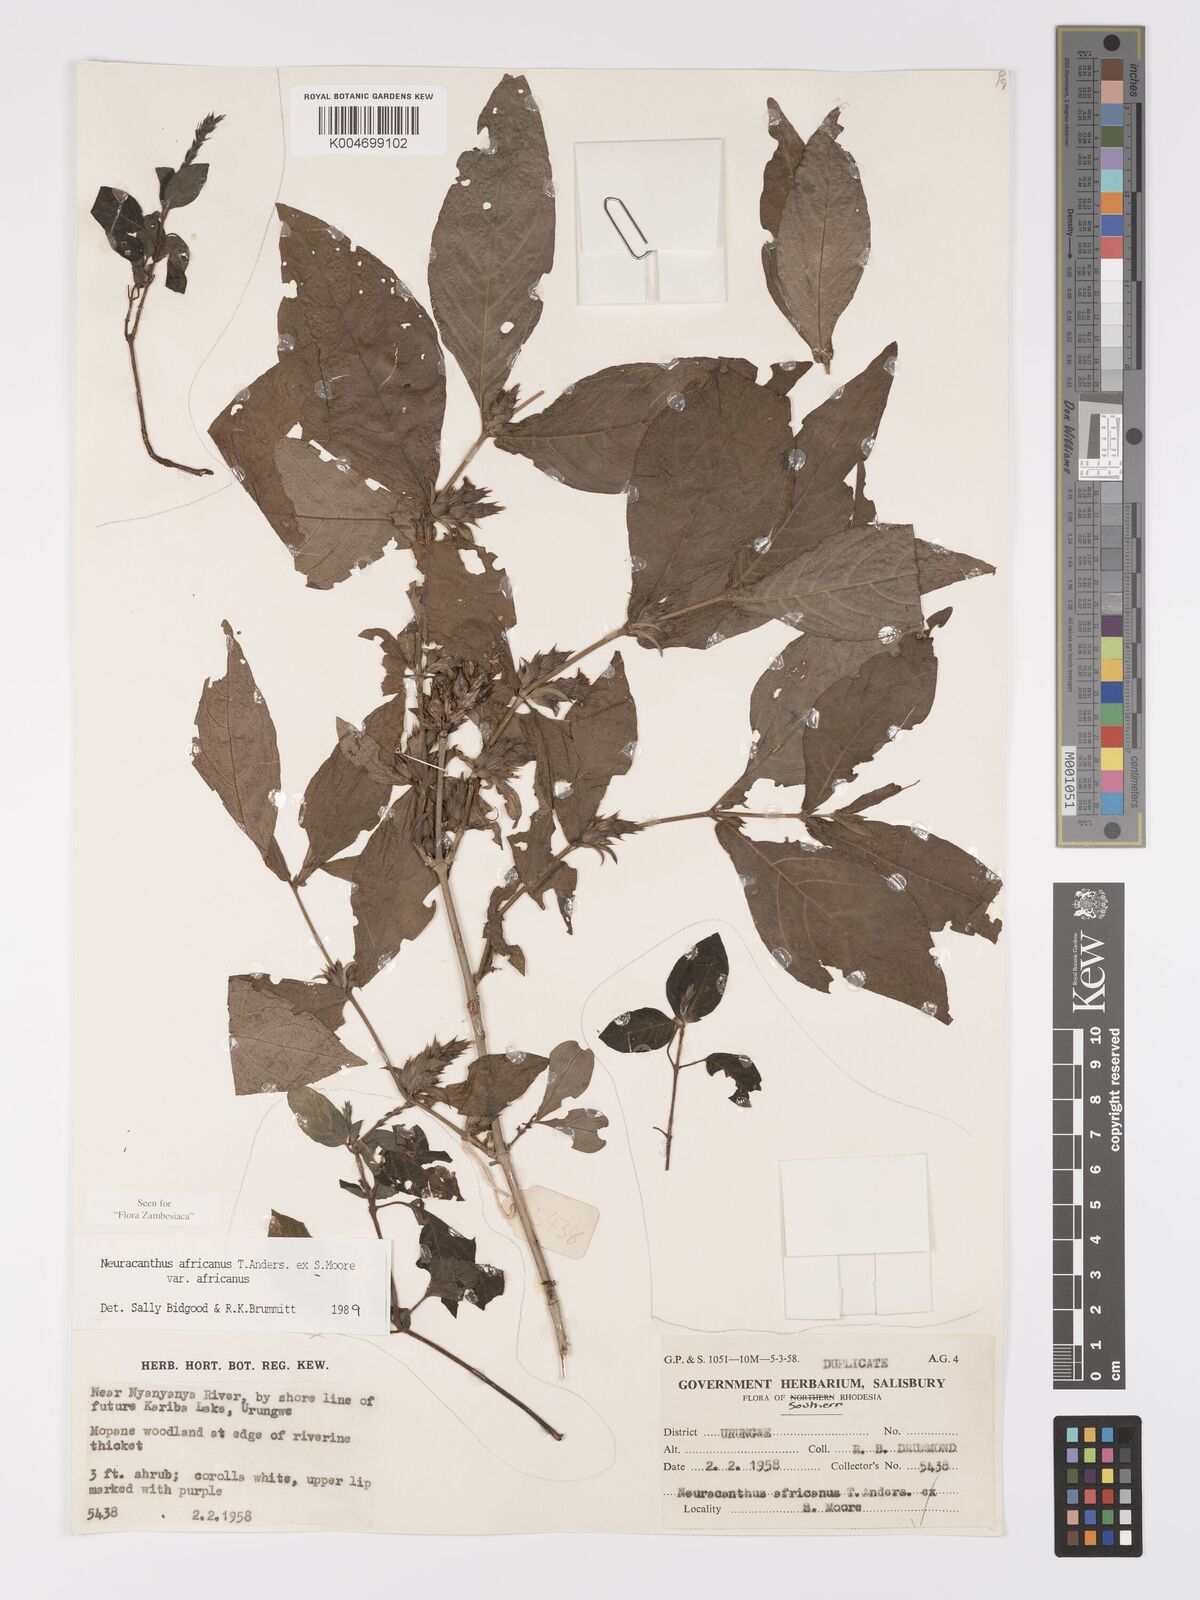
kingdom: Plantae
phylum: Tracheophyta
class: Magnoliopsida
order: Lamiales
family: Acanthaceae
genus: Neuracanthus
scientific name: Neuracanthus africanus
